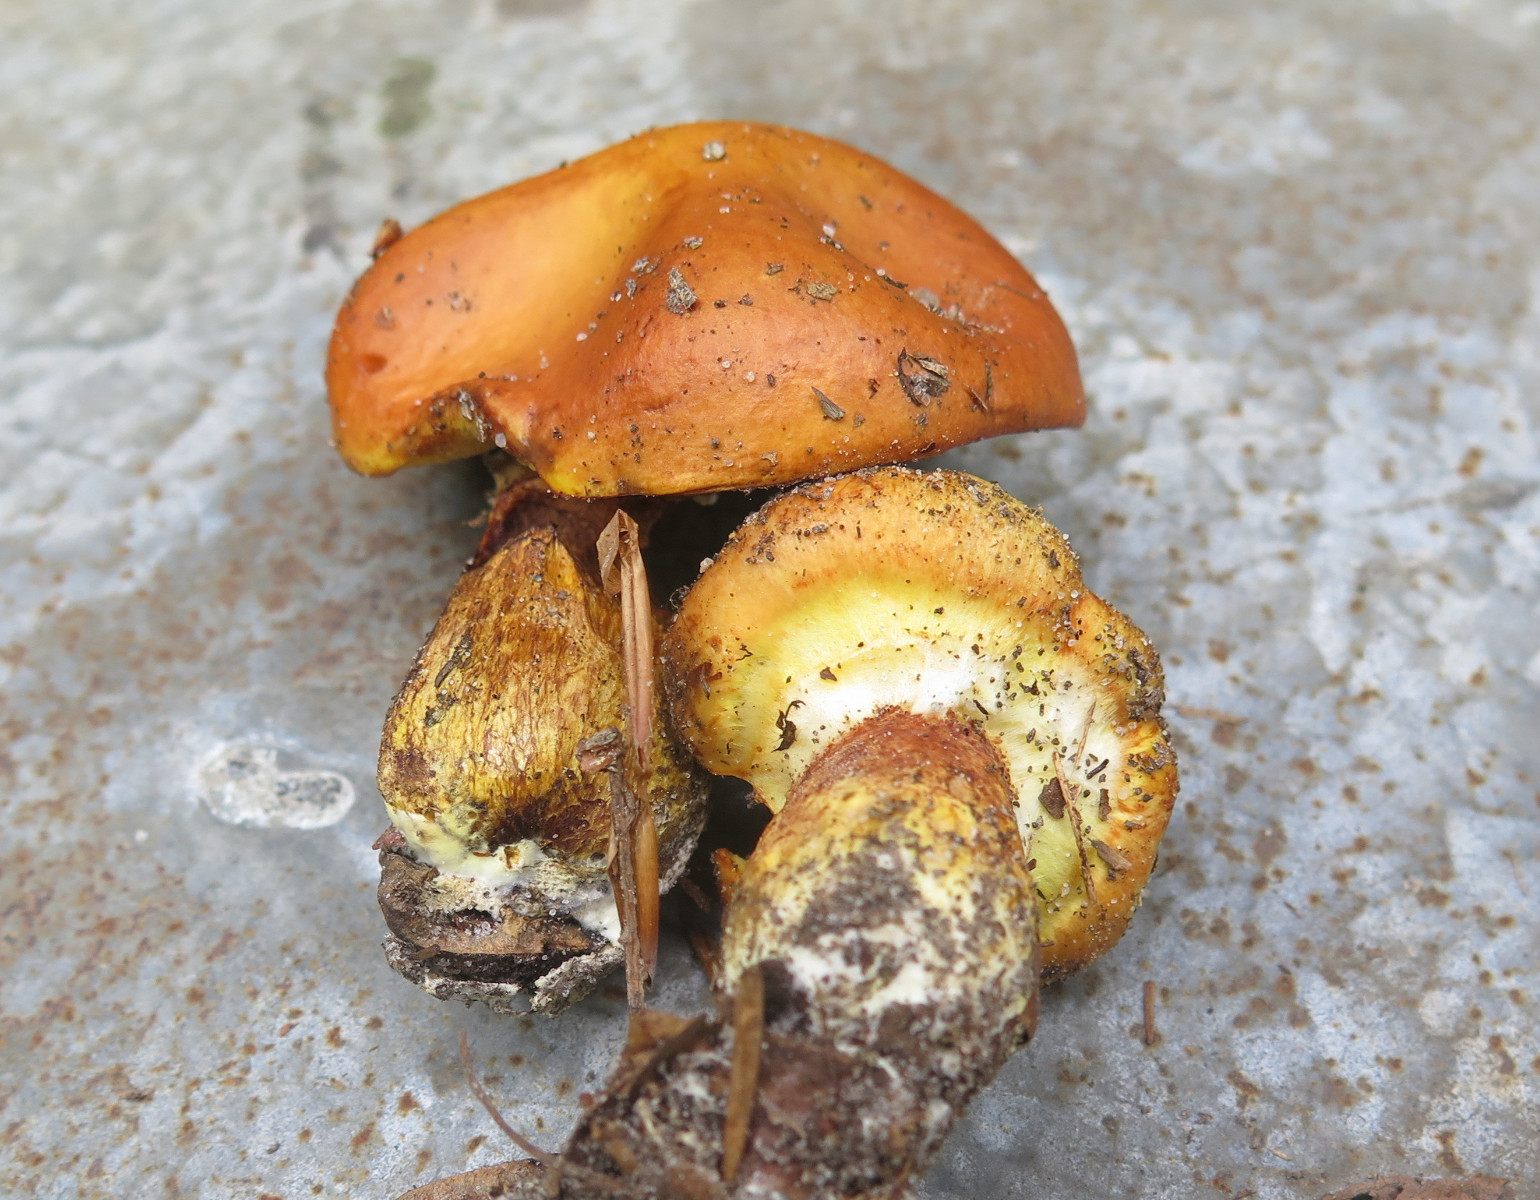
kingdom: Fungi
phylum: Basidiomycota
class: Agaricomycetes
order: Boletales
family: Suillaceae
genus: Suillus
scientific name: Suillus grevillei
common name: lærke-slimrørhat
